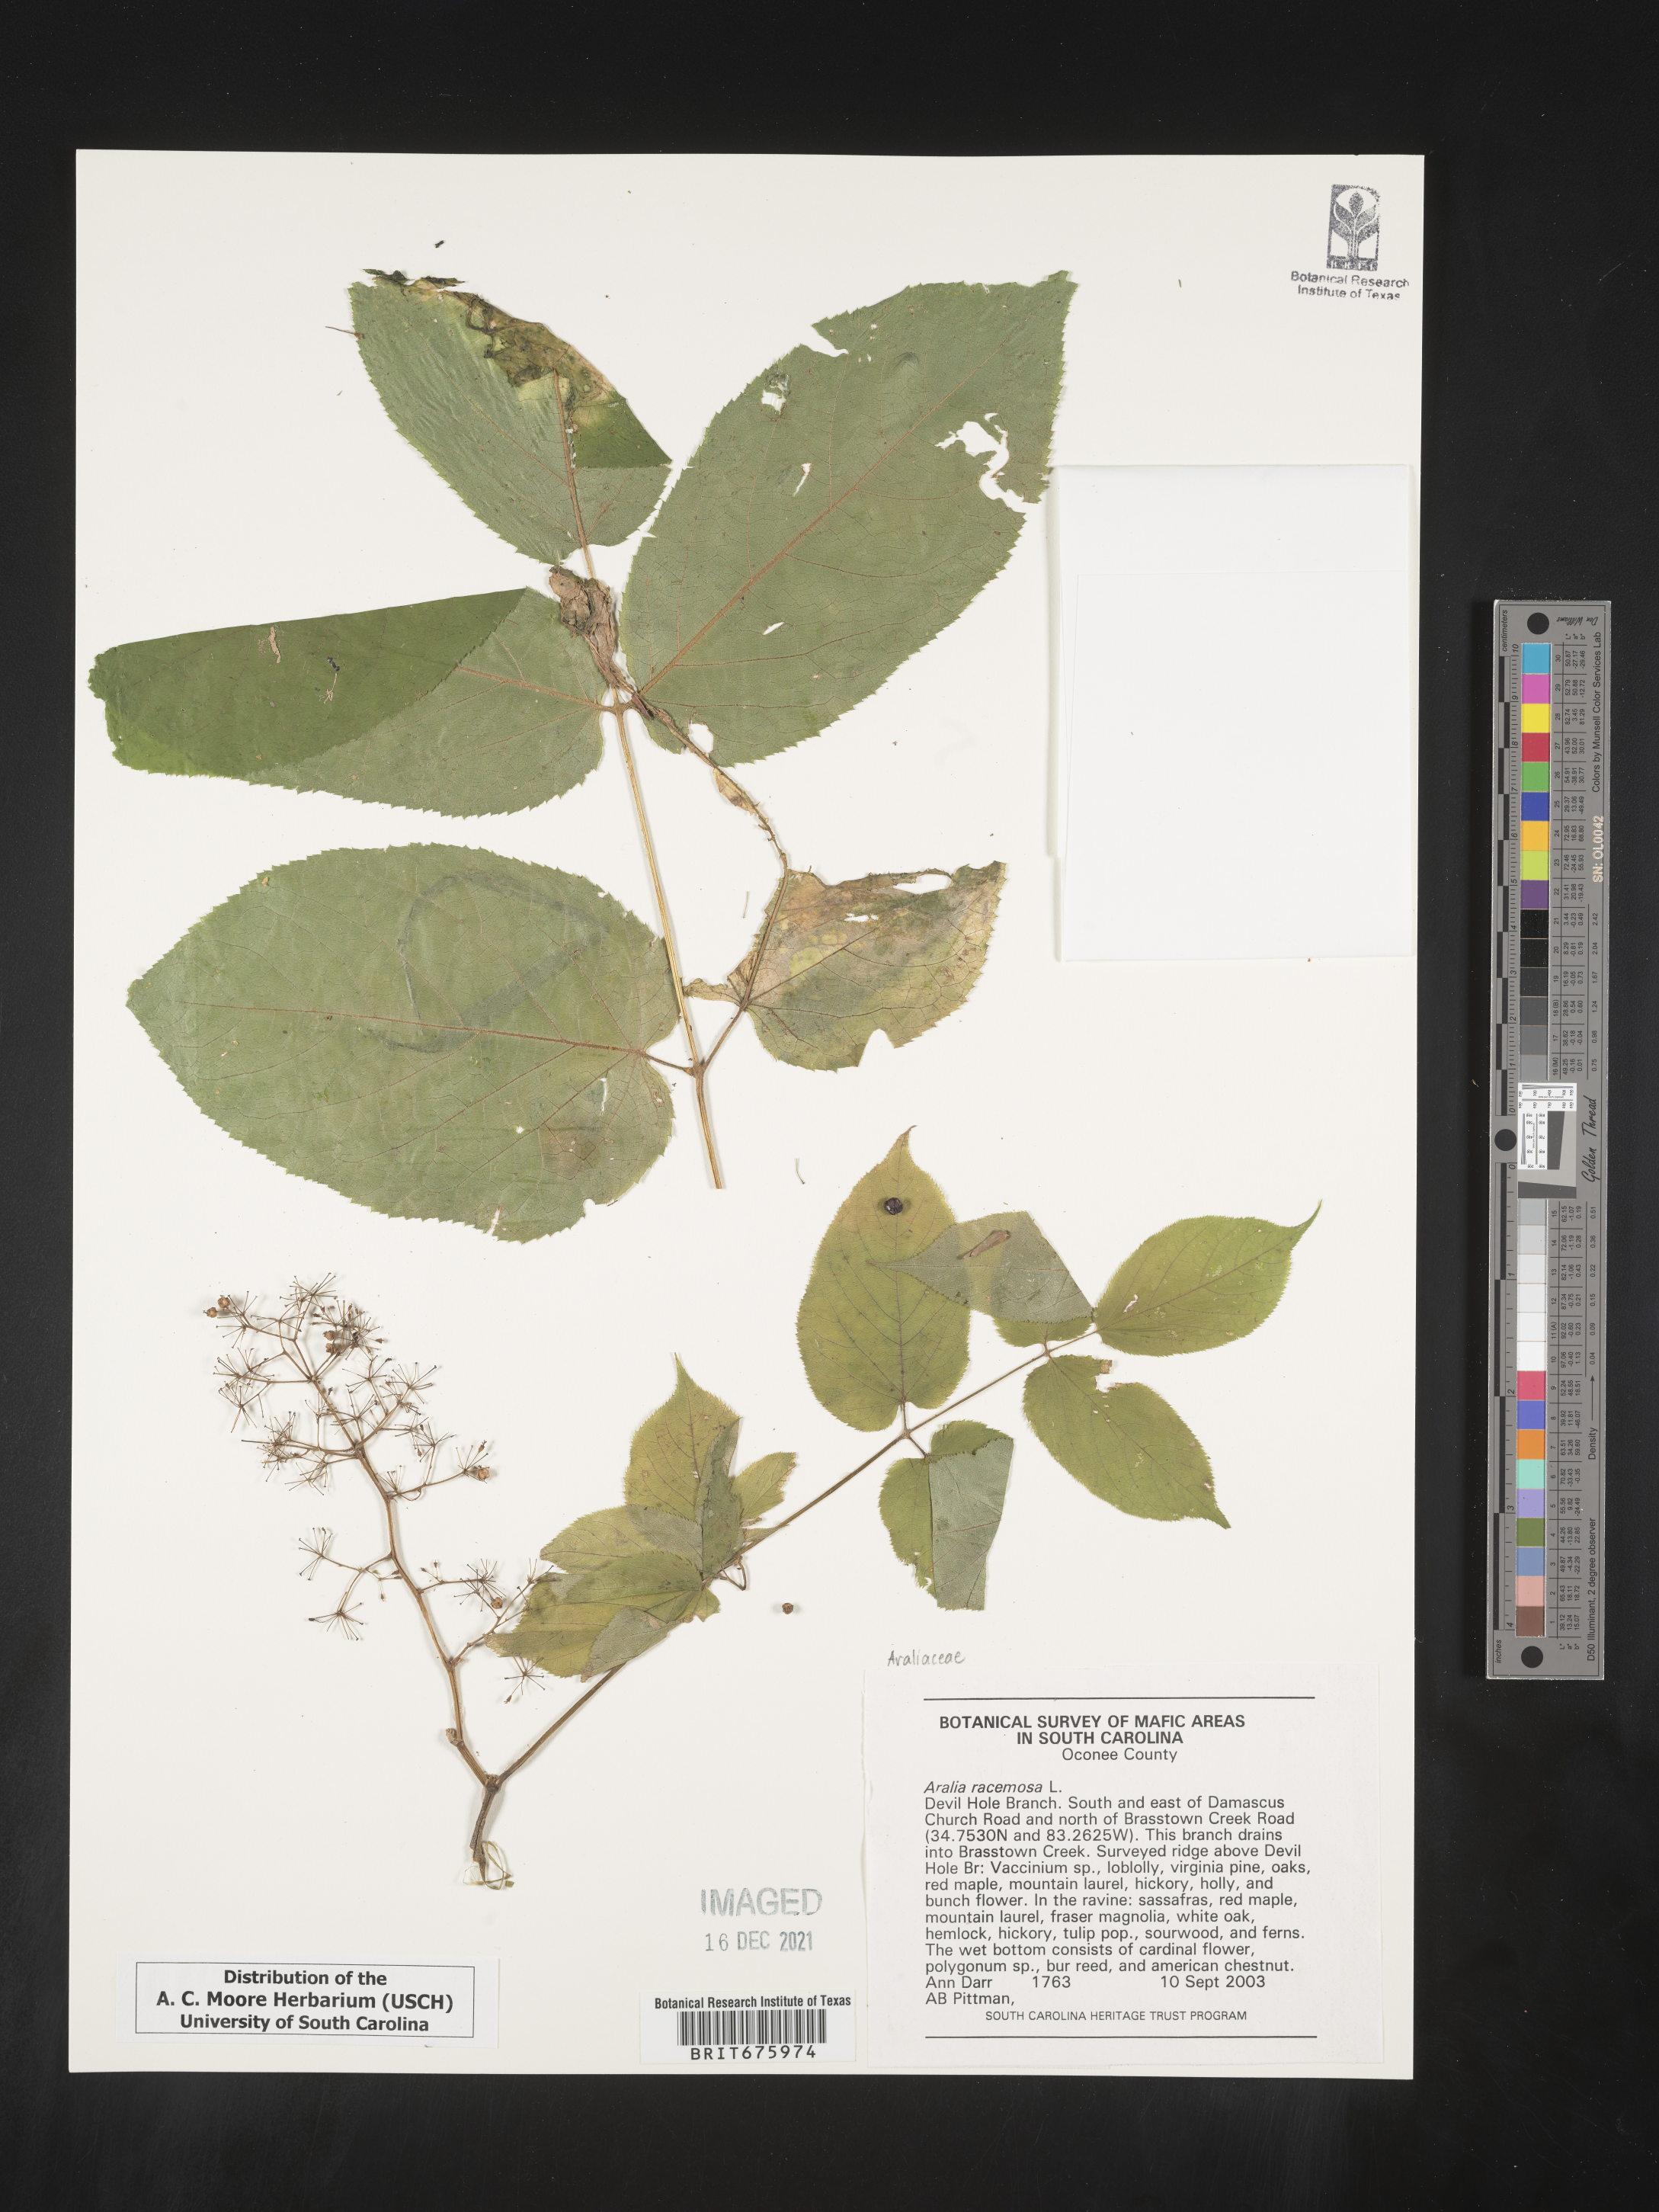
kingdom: Plantae
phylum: Tracheophyta
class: Magnoliopsida
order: Apiales
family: Araliaceae
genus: Aralia
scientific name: Aralia racemosa
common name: American-spikenard
